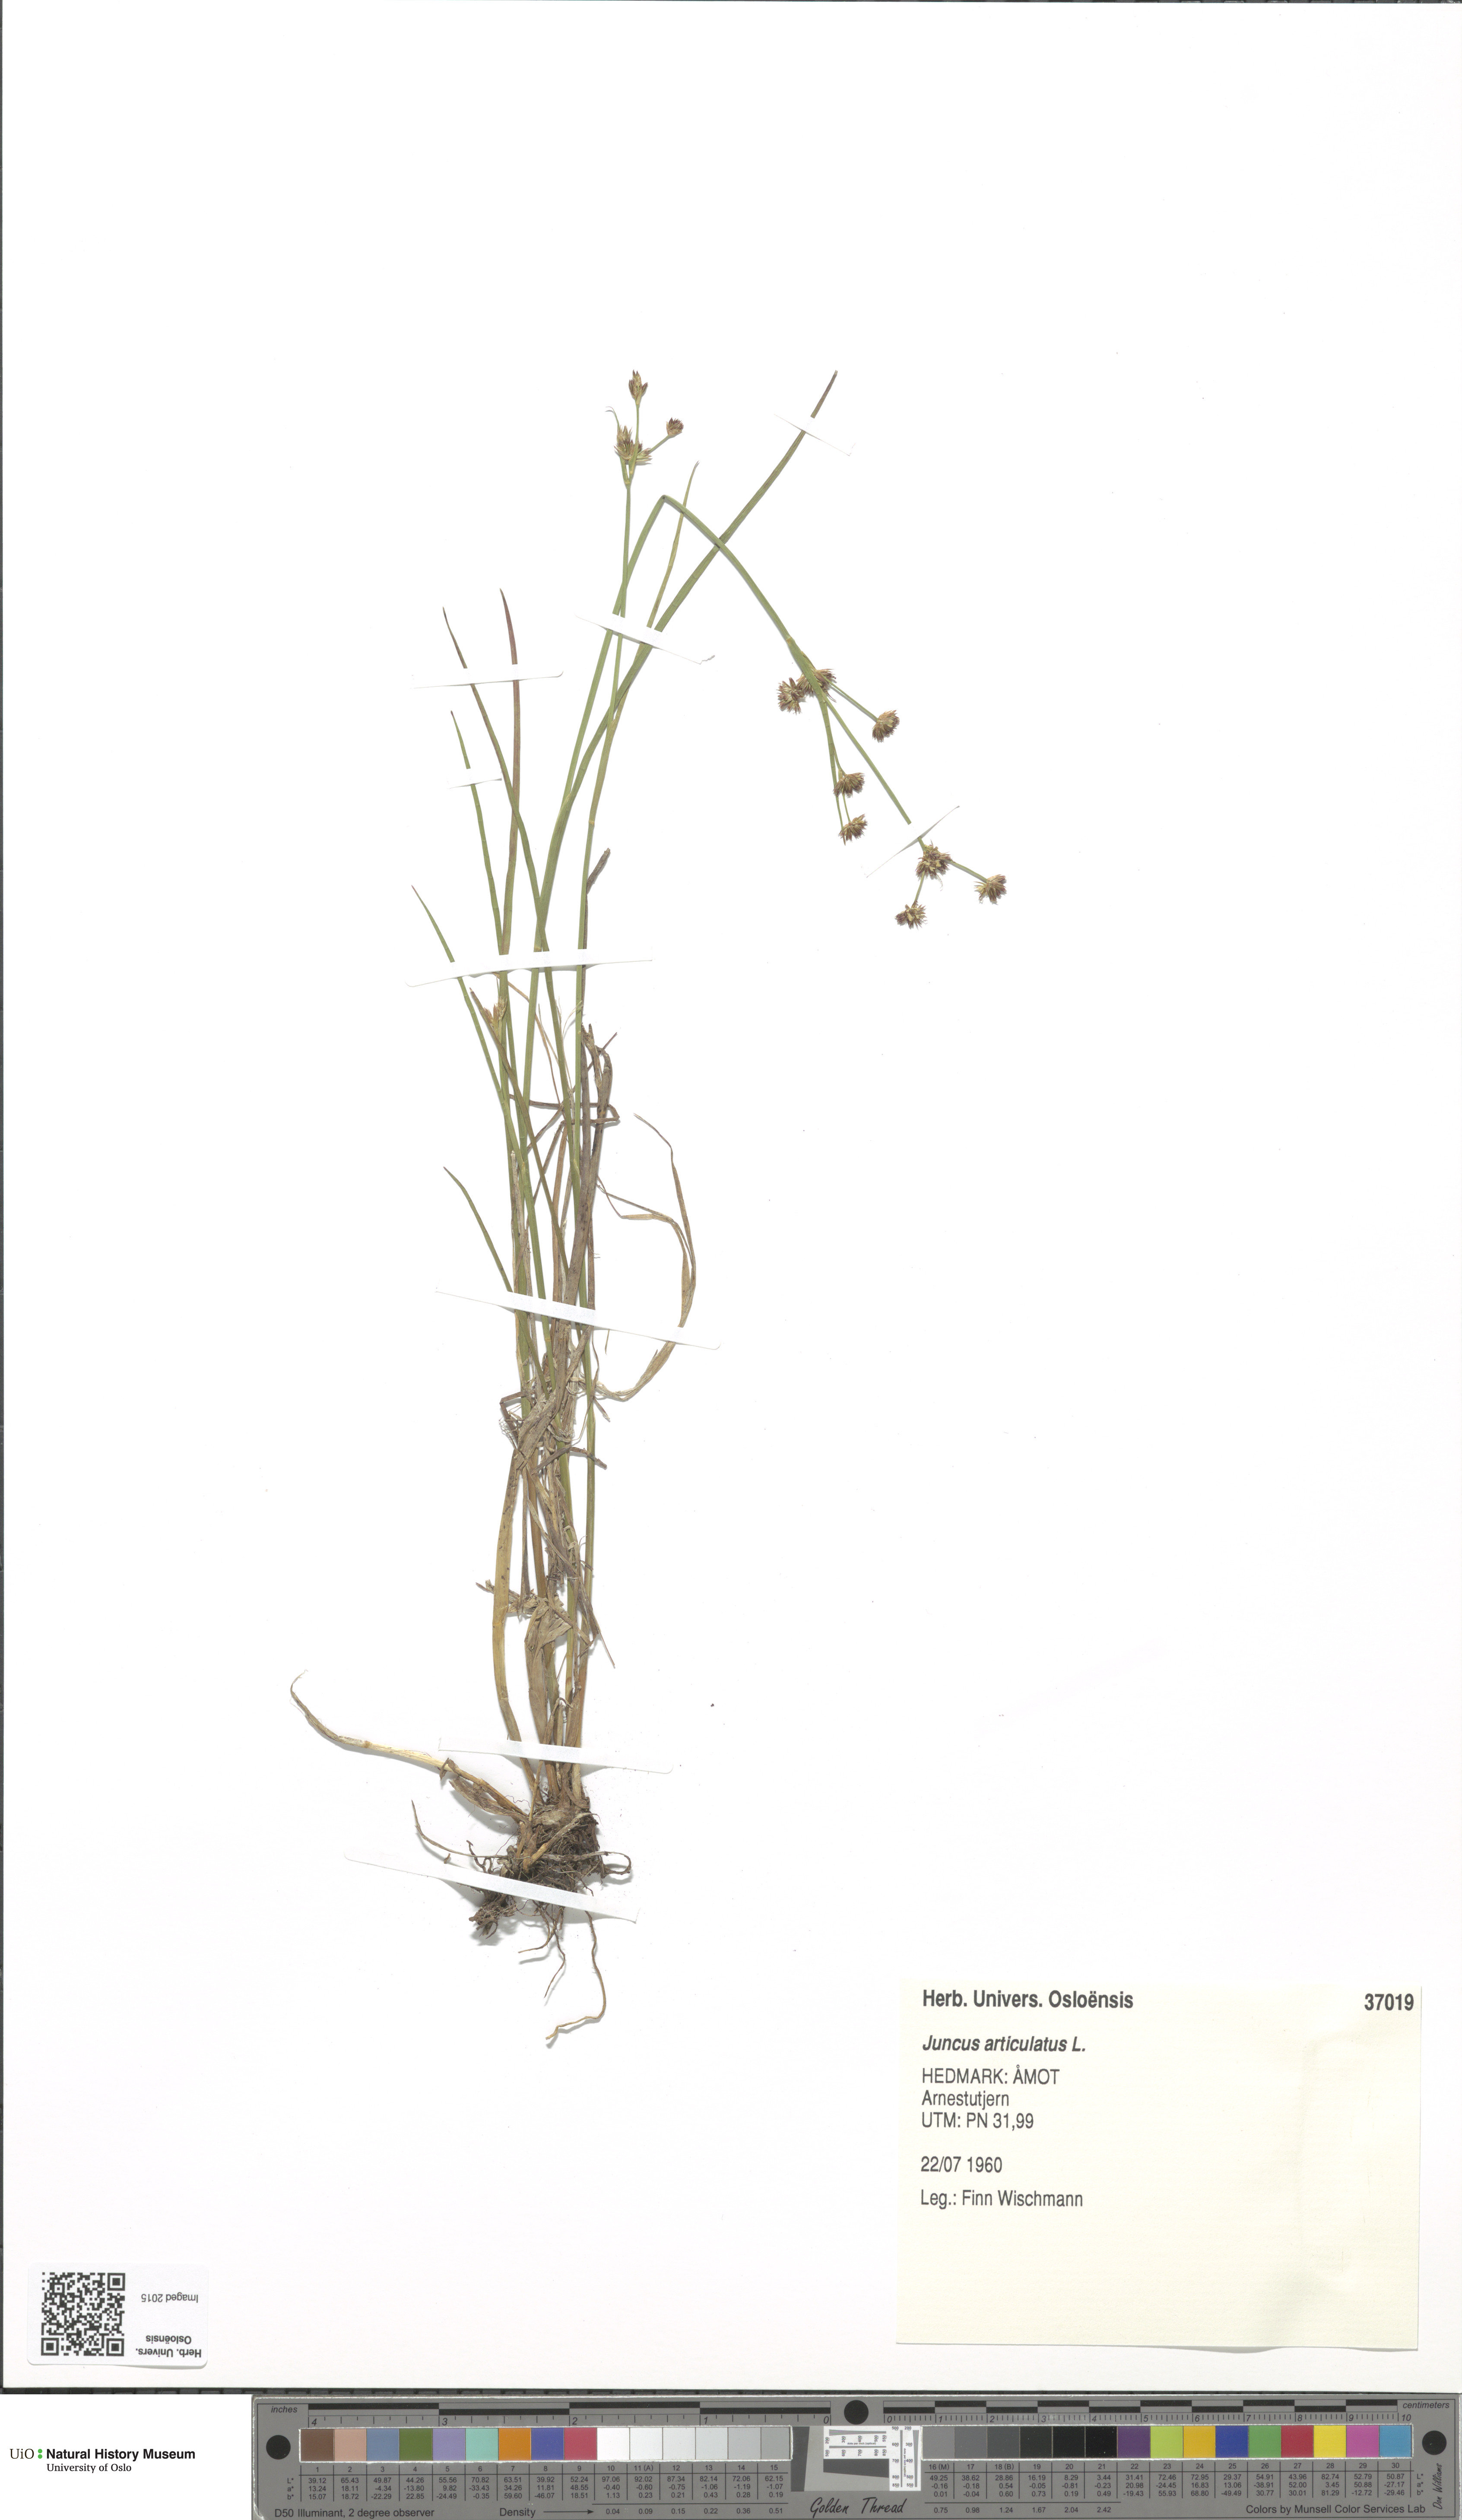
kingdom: Plantae
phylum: Tracheophyta
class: Liliopsida
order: Poales
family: Juncaceae
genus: Juncus
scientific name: Juncus articulatus
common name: Jointed rush
